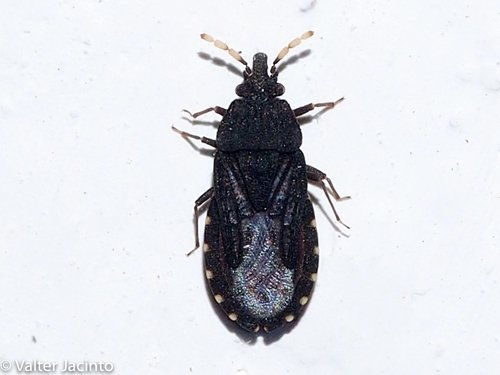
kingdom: Animalia
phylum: Arthropoda
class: Insecta
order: Hemiptera
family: Aradidae
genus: Aradus
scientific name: Aradus flavicornis
